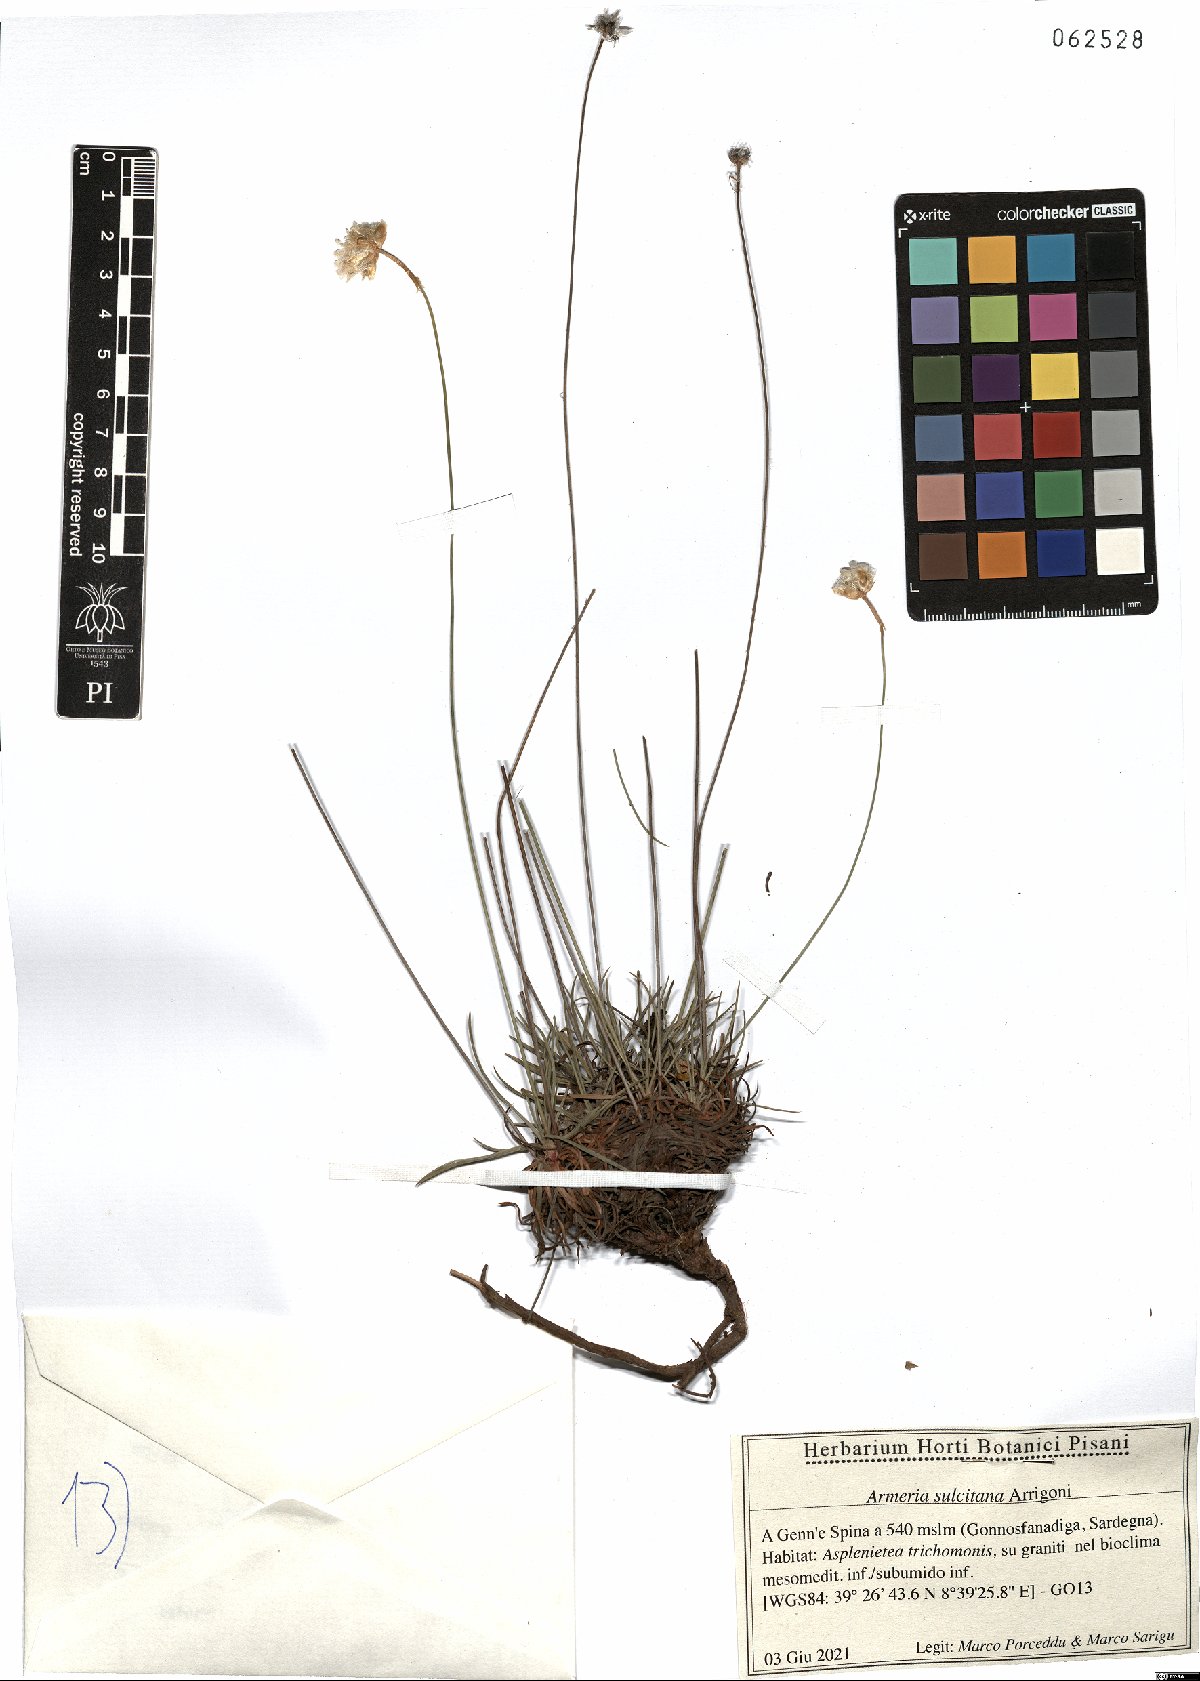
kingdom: Plantae
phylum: Tracheophyta
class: Magnoliopsida
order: Caryophyllales
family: Plumbaginaceae
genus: Armeria
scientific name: Armeria sulcitana
